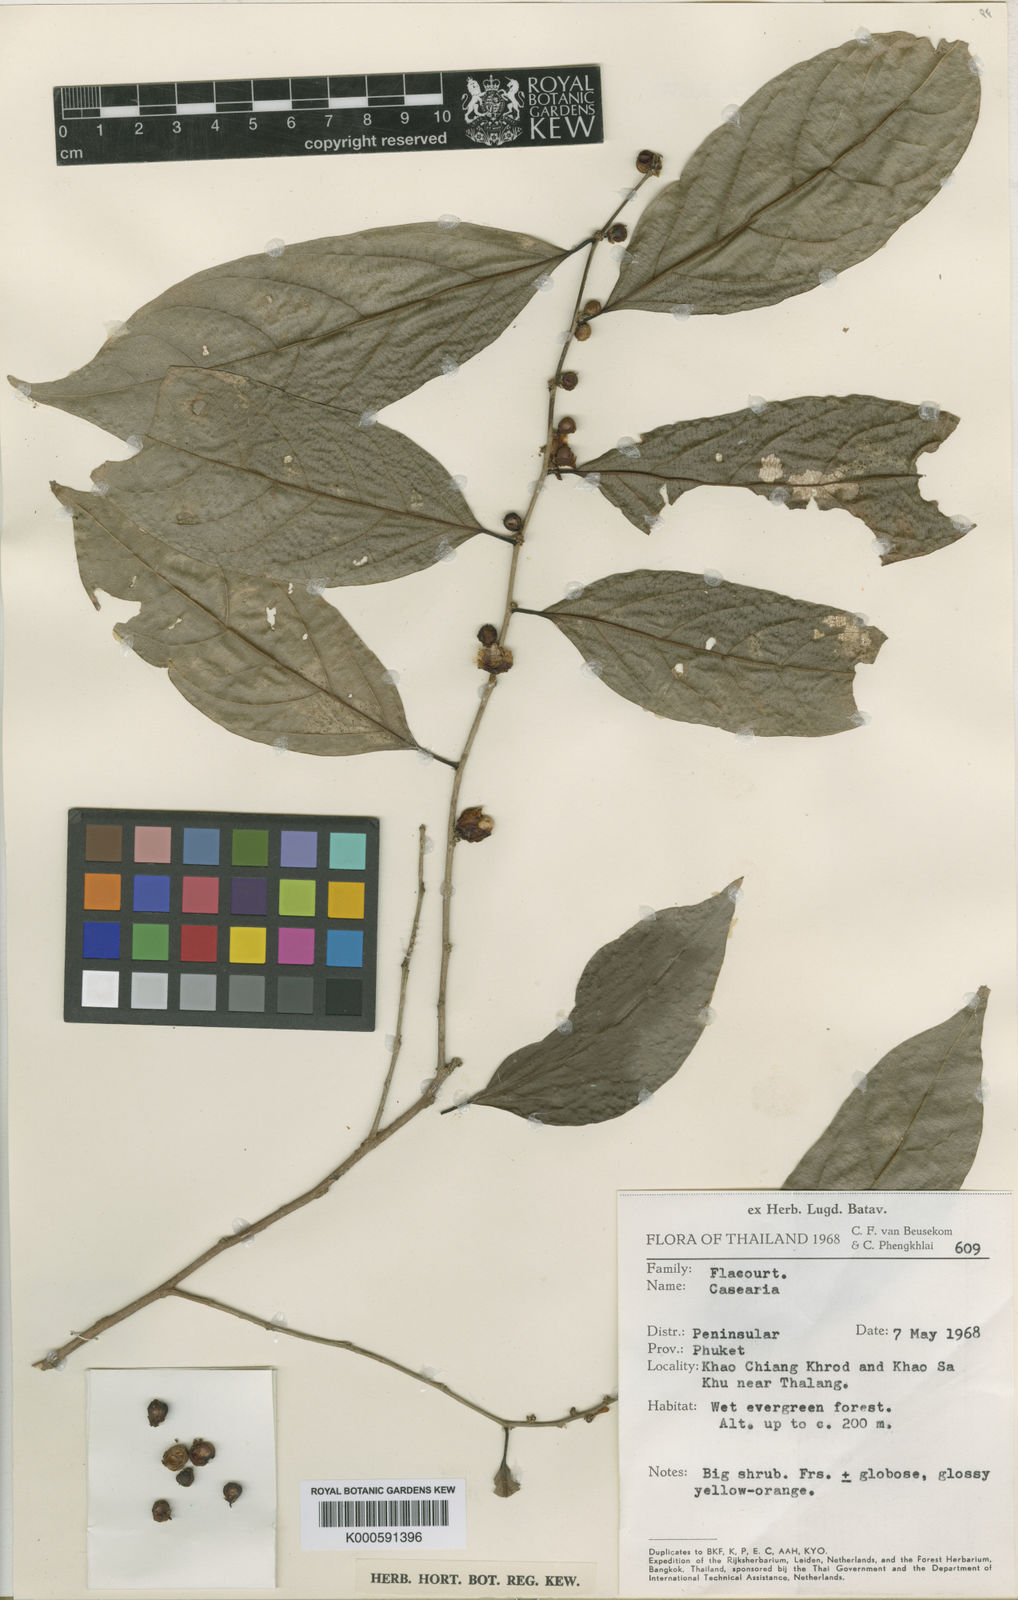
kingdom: Plantae
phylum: Tracheophyta
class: Magnoliopsida
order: Malpighiales
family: Salicaceae
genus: Casearia
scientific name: Casearia pseudoglomerata
